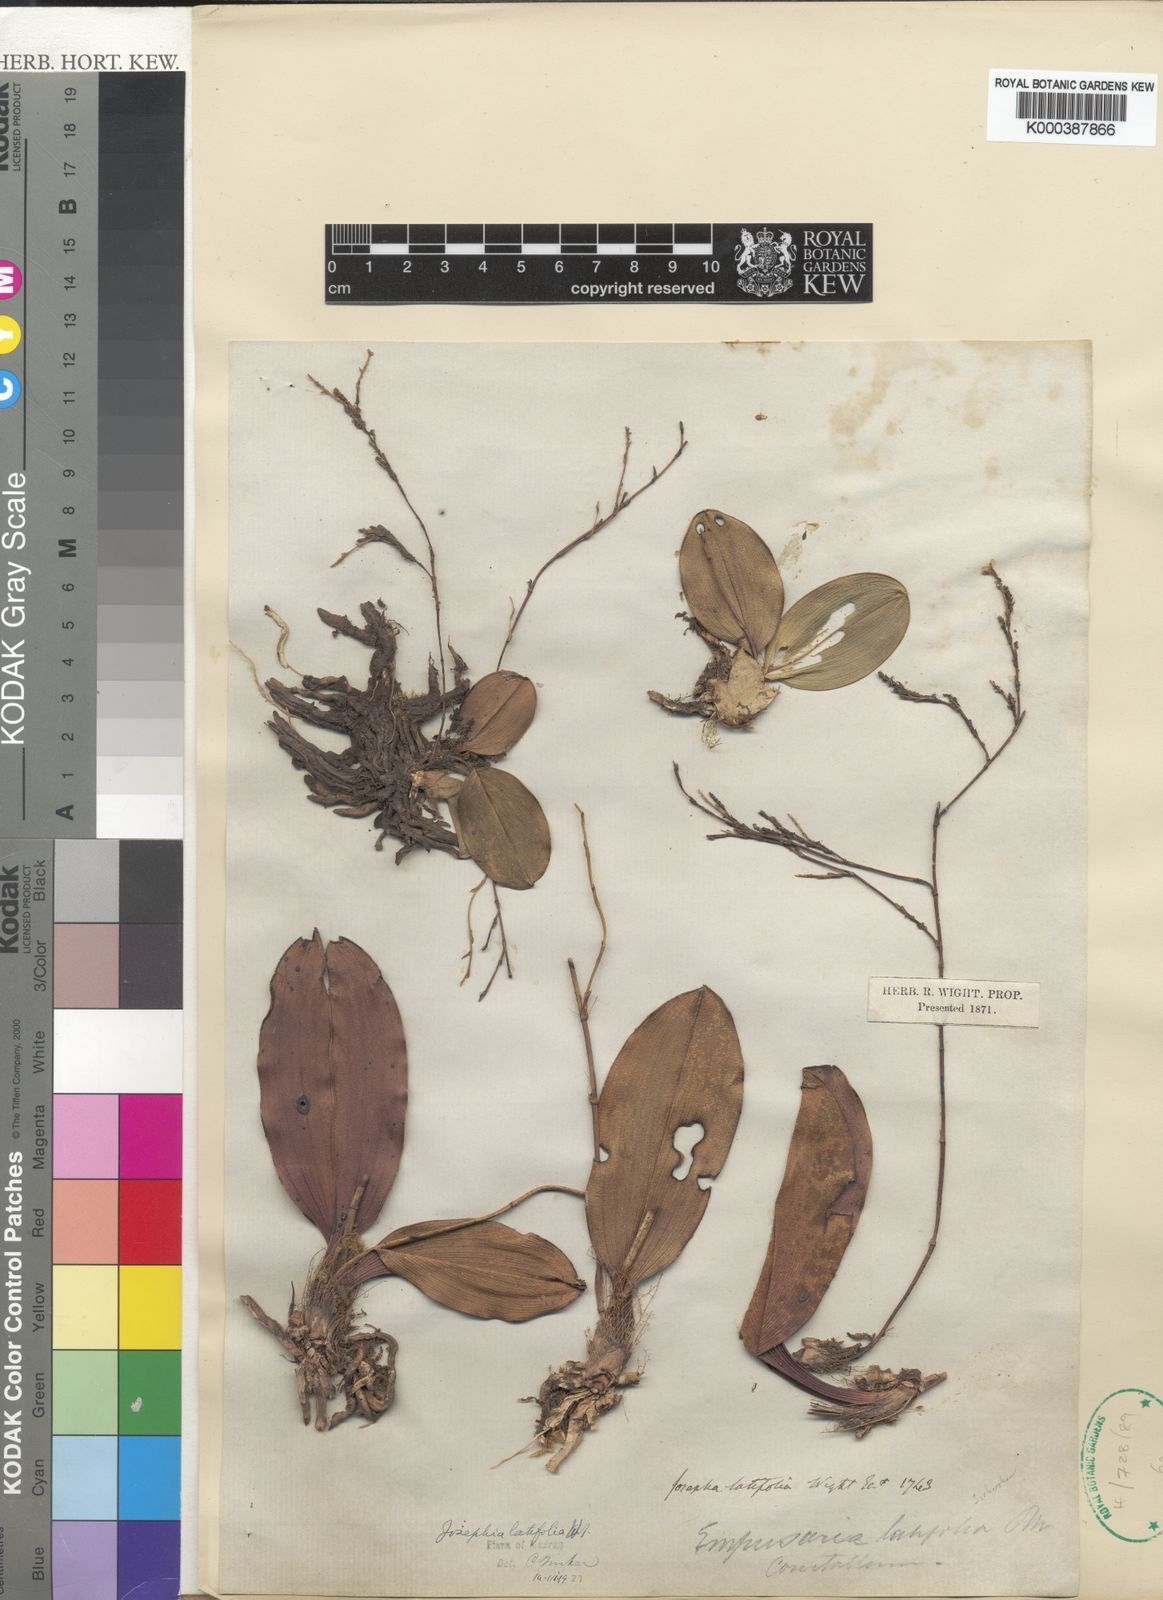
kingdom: Plantae
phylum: Tracheophyta
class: Liliopsida
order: Asparagales
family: Orchidaceae
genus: Sirhookera
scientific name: Sirhookera latifolia
